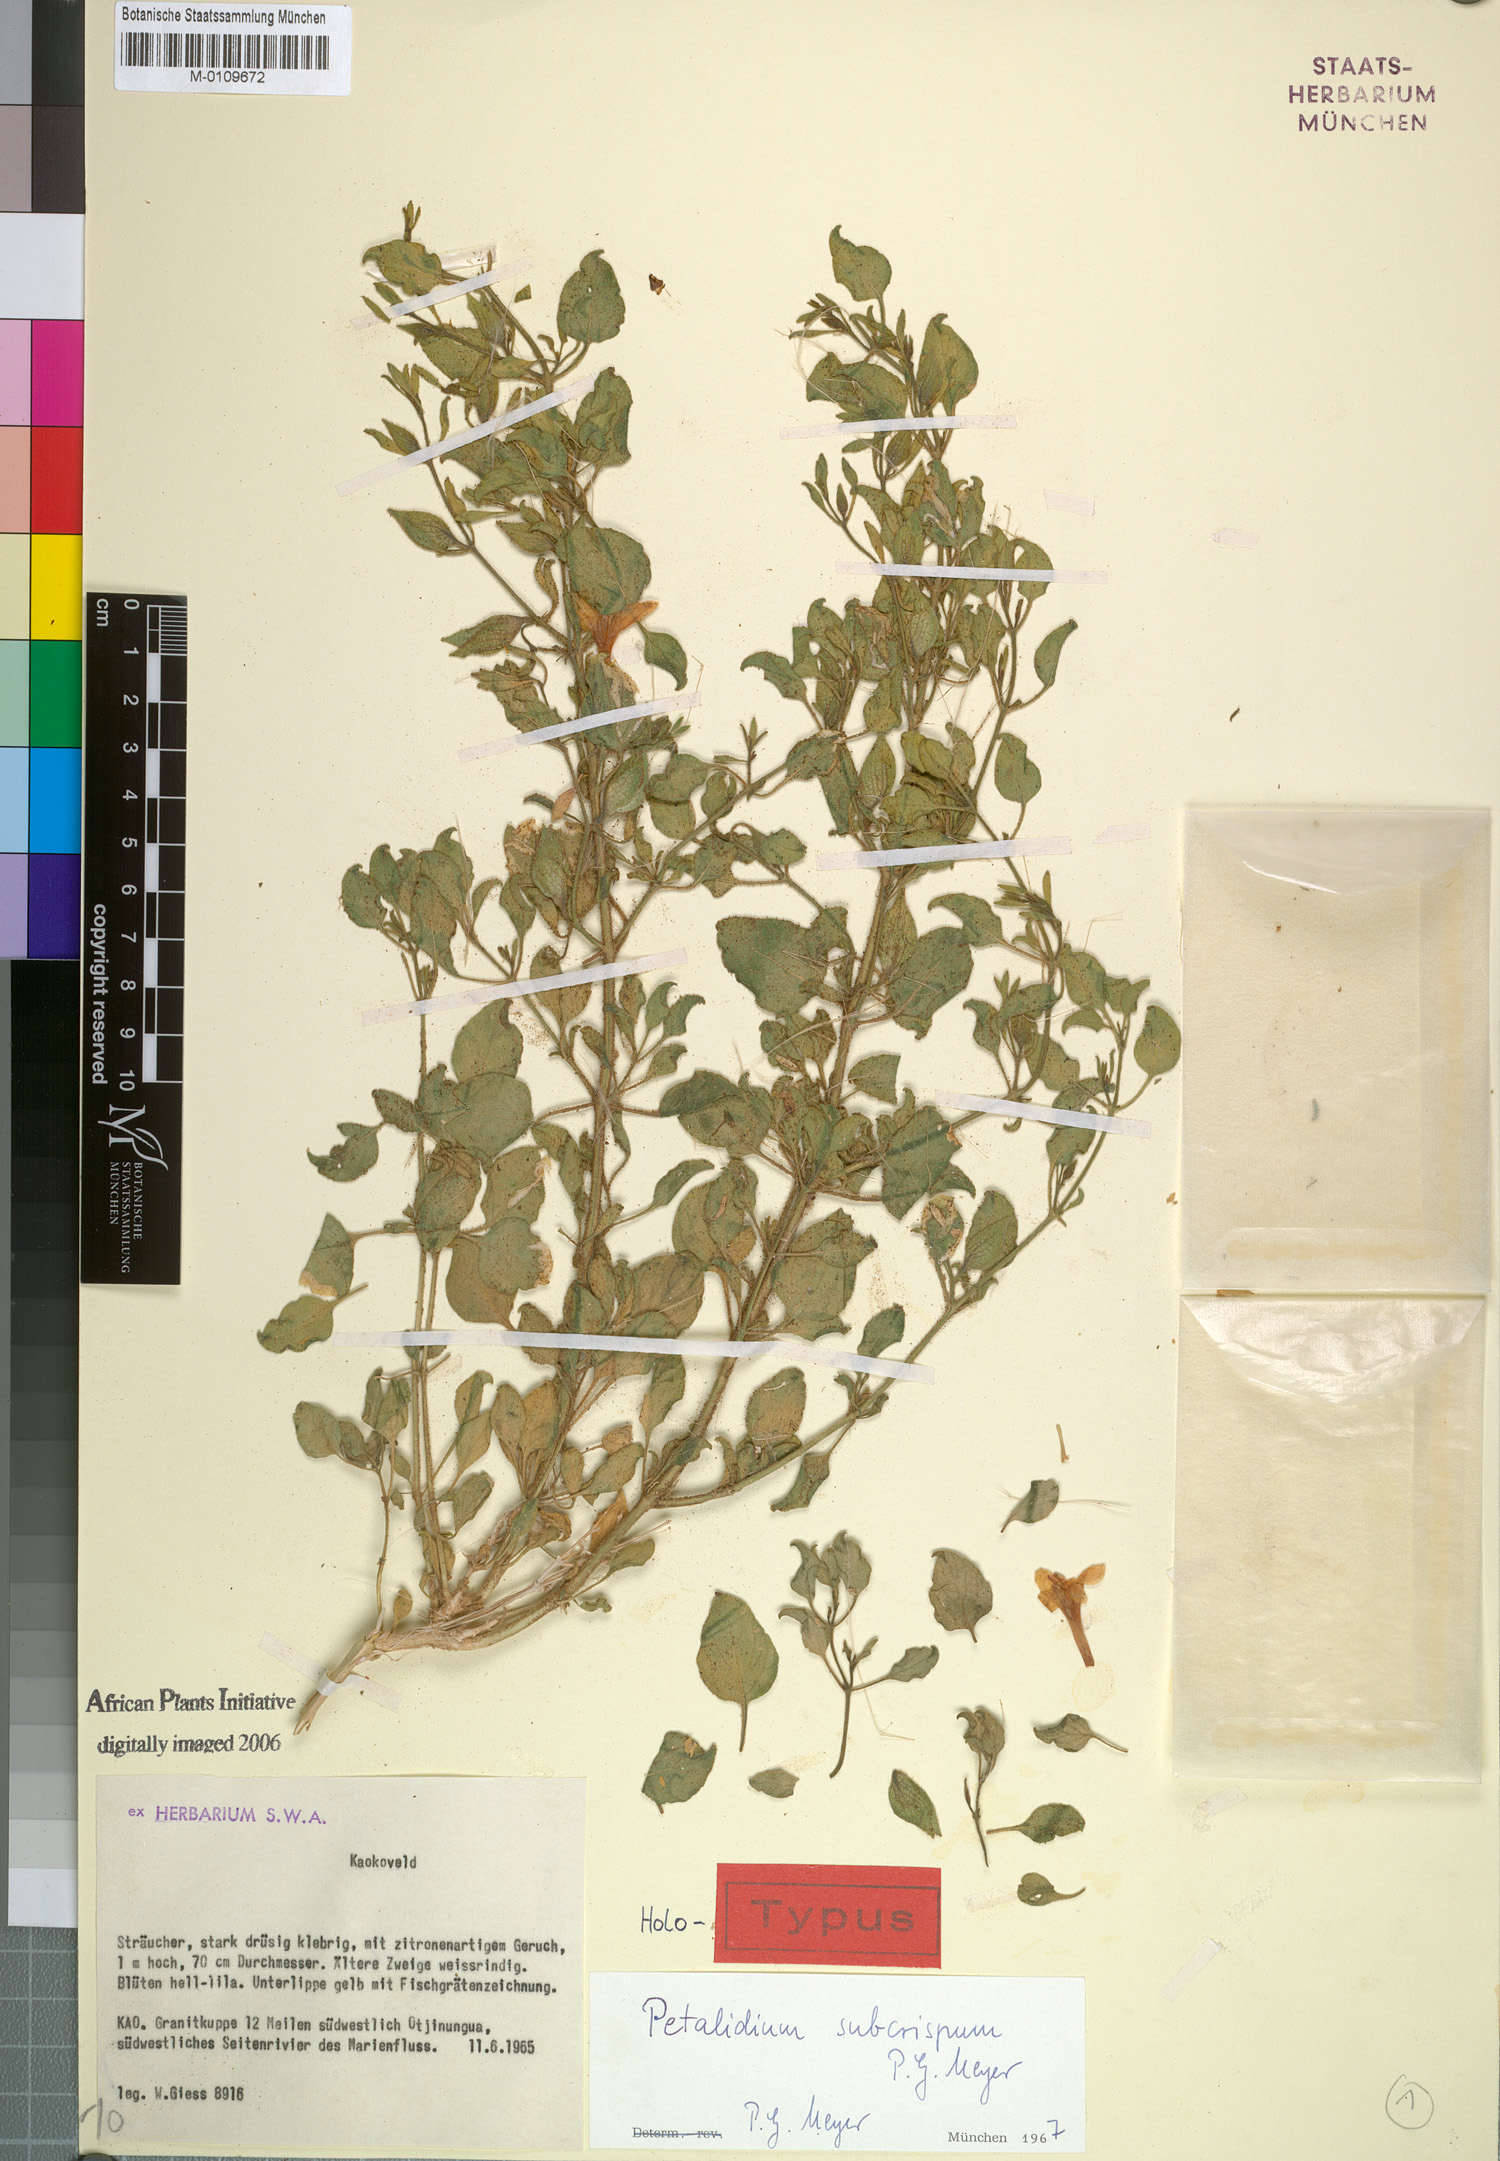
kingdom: Plantae
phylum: Tracheophyta
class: Magnoliopsida
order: Lamiales
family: Acanthaceae
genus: Petalidium
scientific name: Petalidium subcrispum
